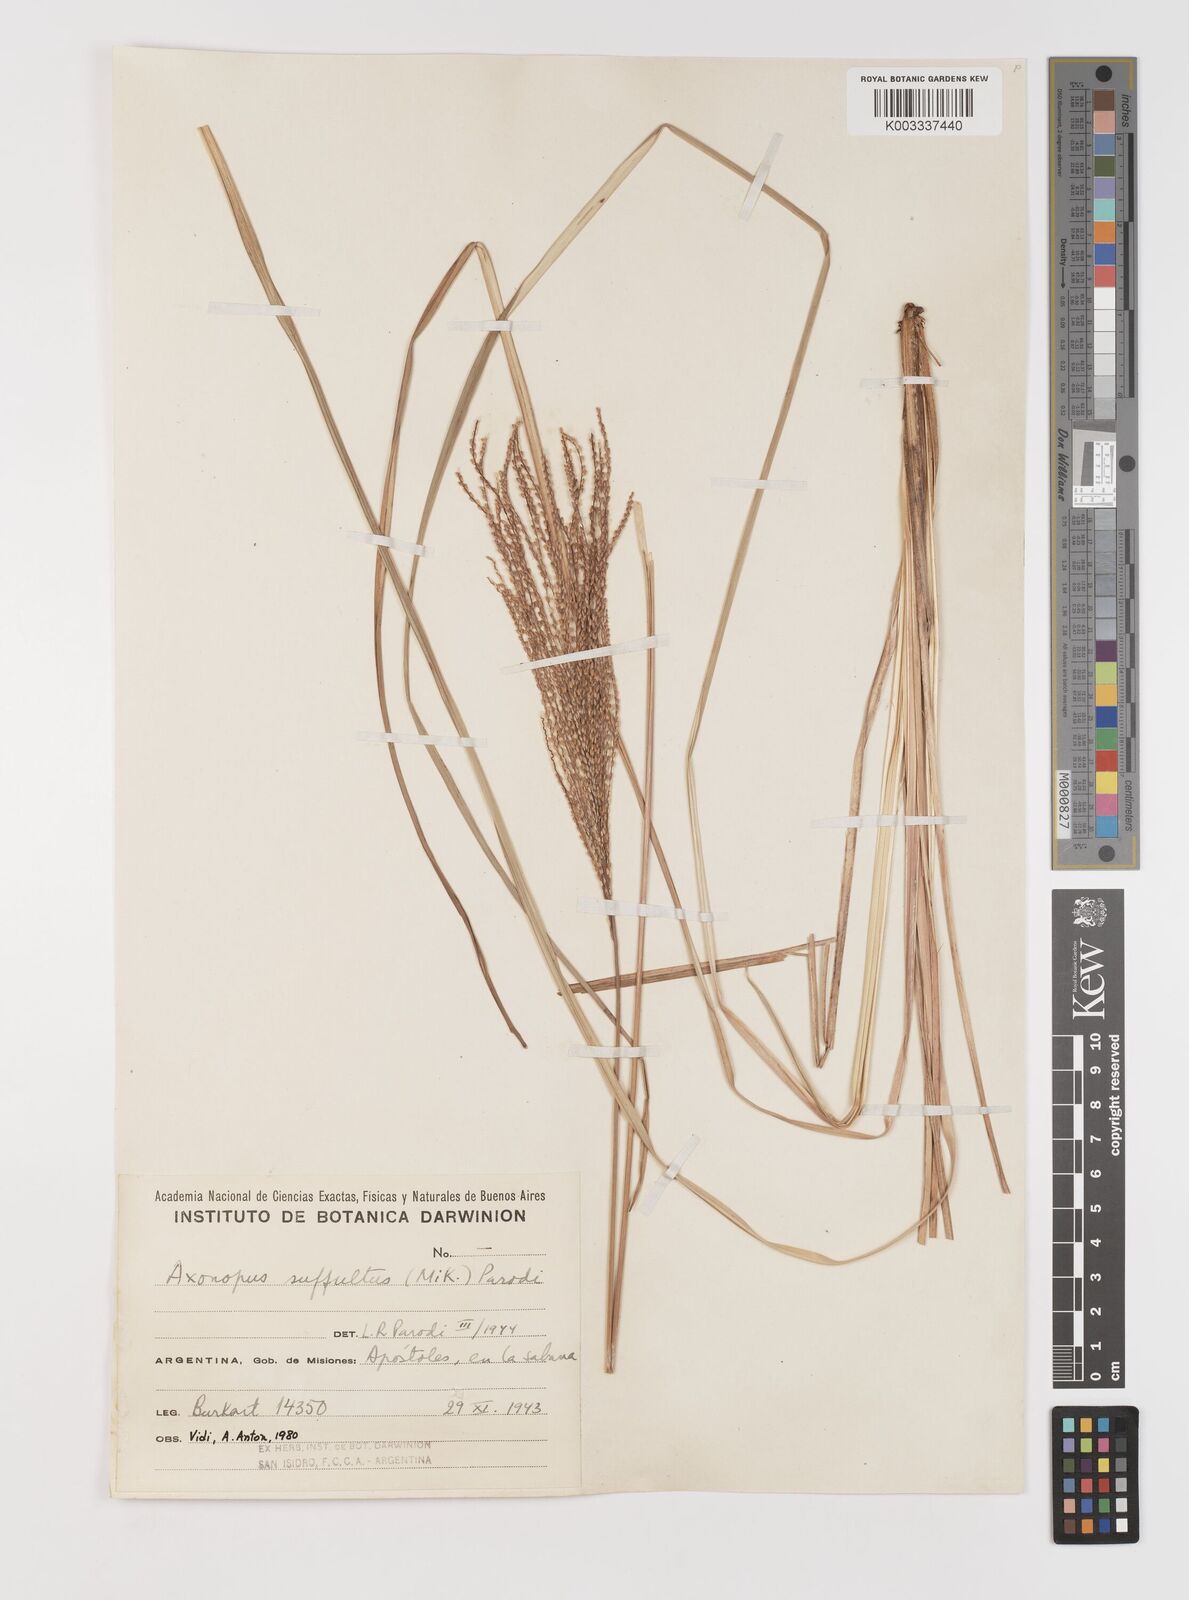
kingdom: Plantae
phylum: Tracheophyta
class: Liliopsida
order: Poales
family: Poaceae
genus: Axonopus
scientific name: Axonopus suffultus
